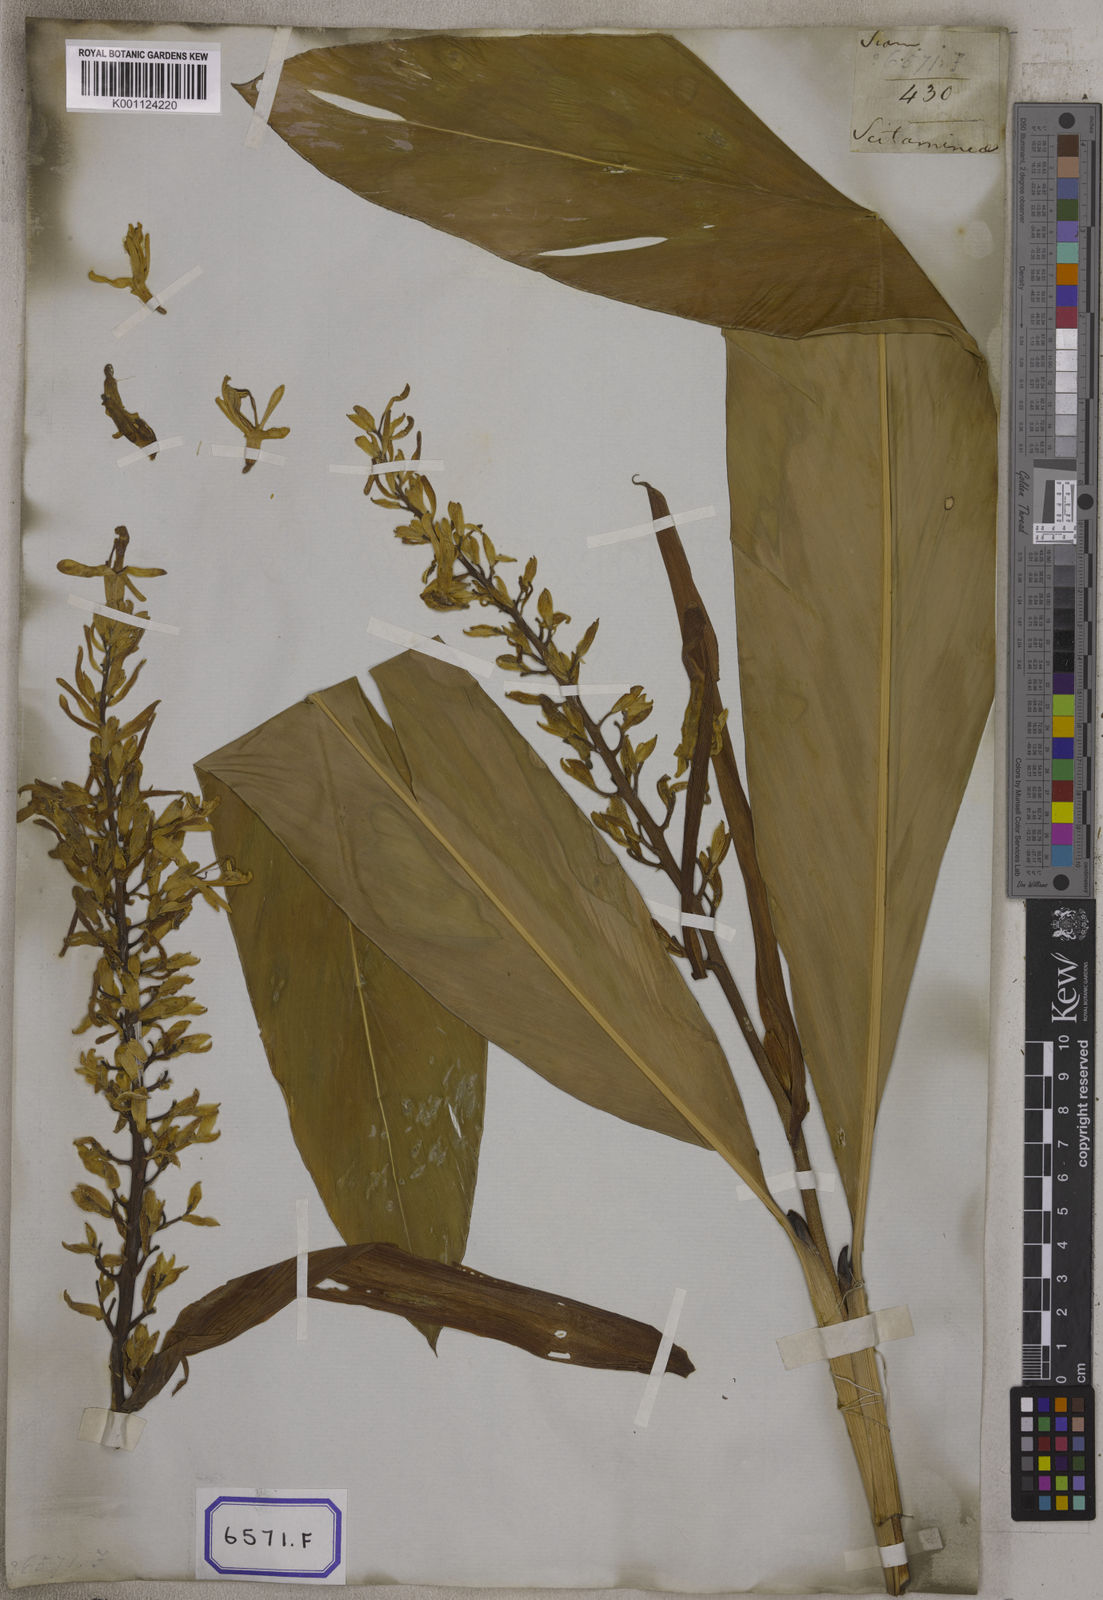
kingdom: Plantae
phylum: Tracheophyta
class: Liliopsida
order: Zingiberales
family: Zingiberaceae
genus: Alpinia
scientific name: Alpinia nigra
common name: Black fruited galanga
